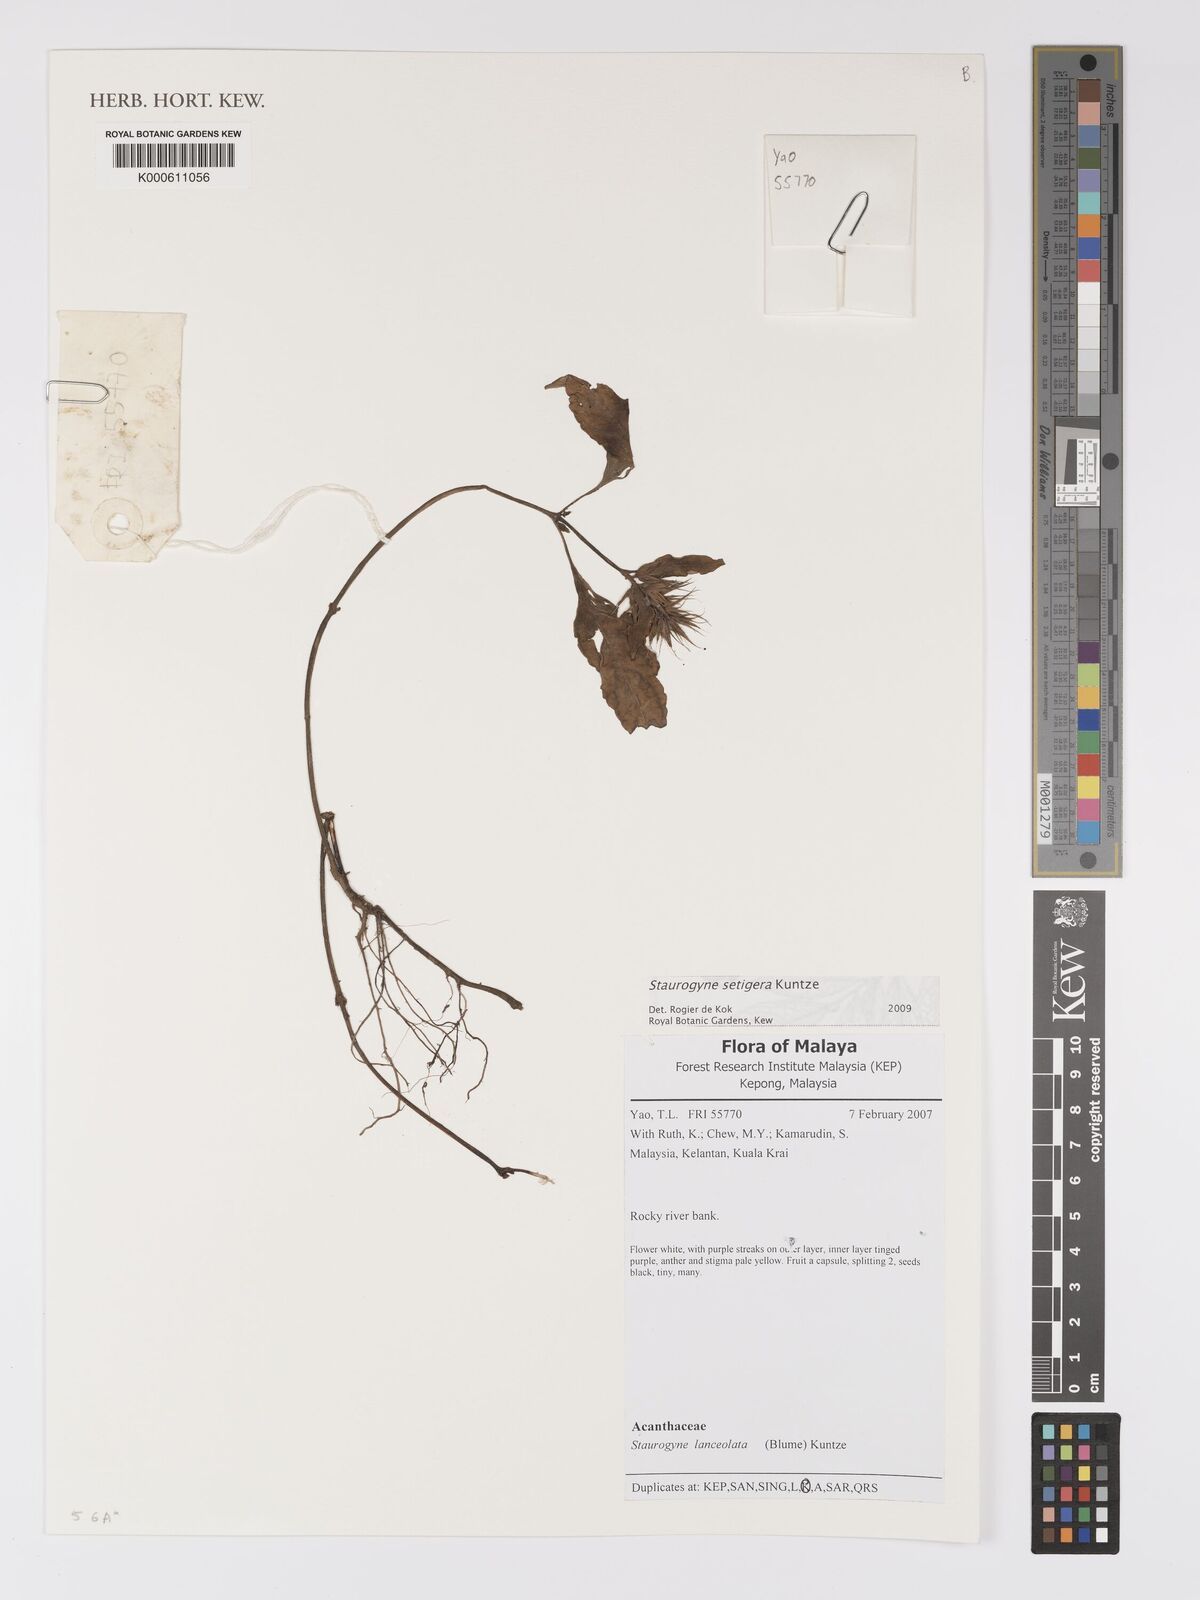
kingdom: Plantae
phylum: Tracheophyta
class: Magnoliopsida
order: Lamiales
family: Acanthaceae
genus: Staurogyne
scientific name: Staurogyne setigera
